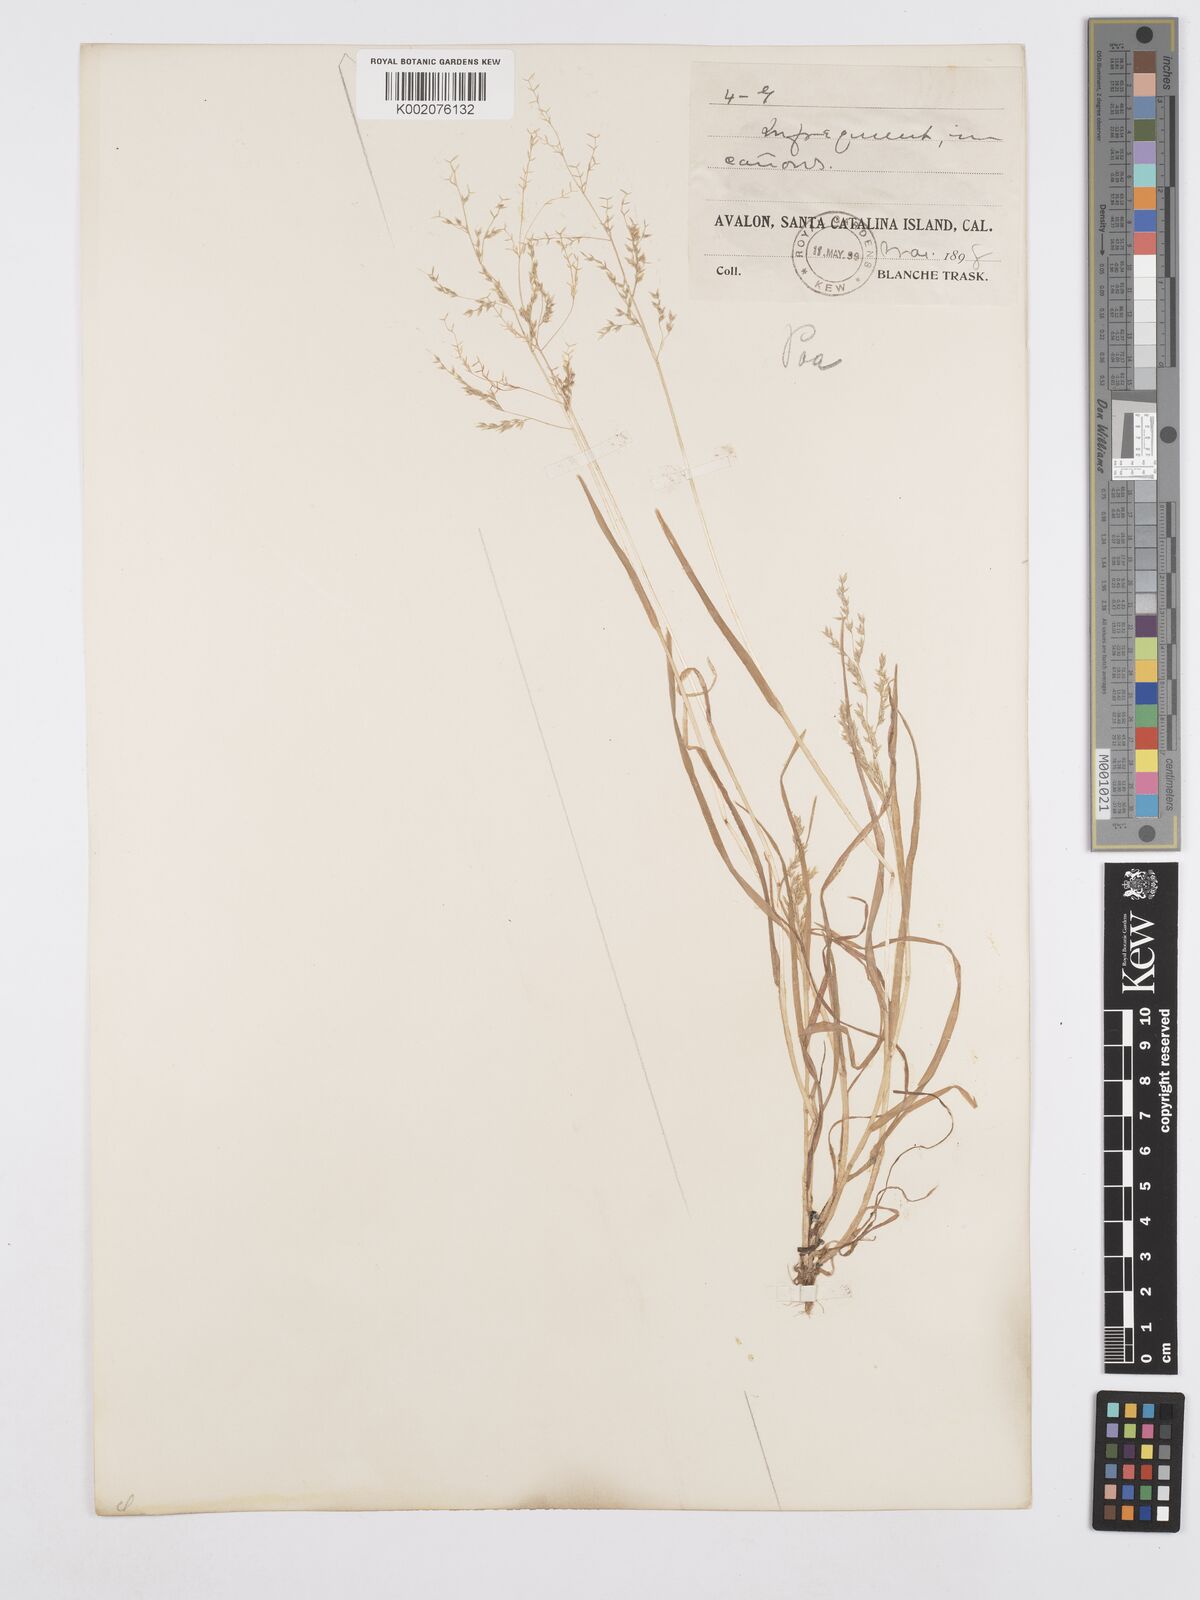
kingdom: Plantae
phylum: Tracheophyta
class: Liliopsida
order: Poales
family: Poaceae
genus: Poa
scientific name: Poa annua
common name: Annual bluegrass
